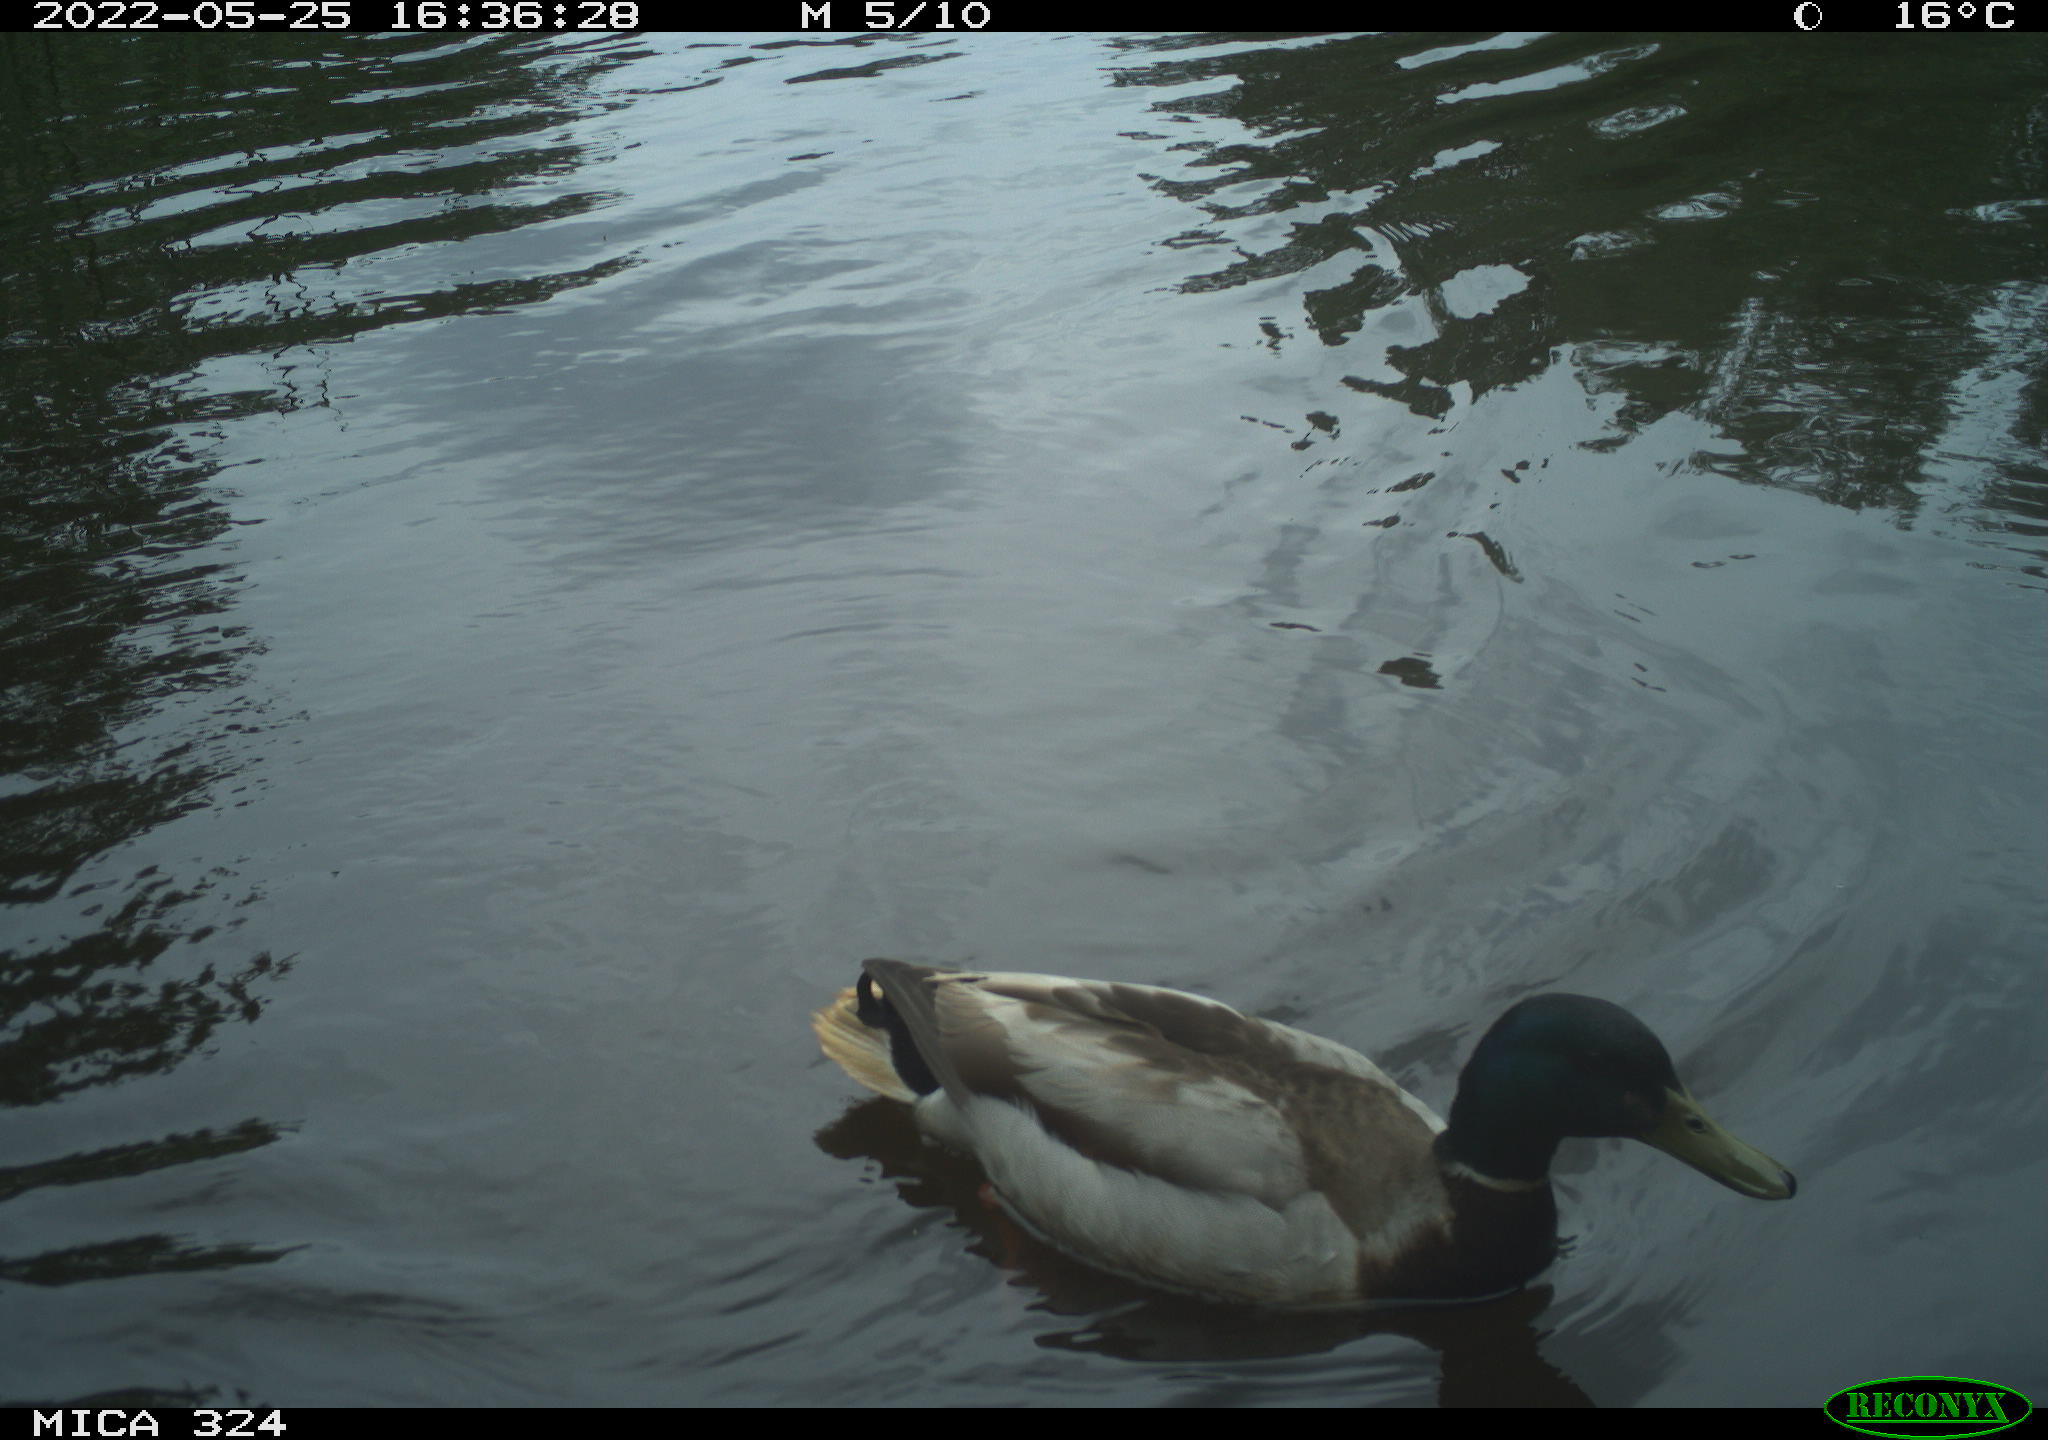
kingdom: Animalia
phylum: Chordata
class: Aves
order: Gruiformes
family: Rallidae
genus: Gallinula
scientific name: Gallinula chloropus
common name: Common moorhen
